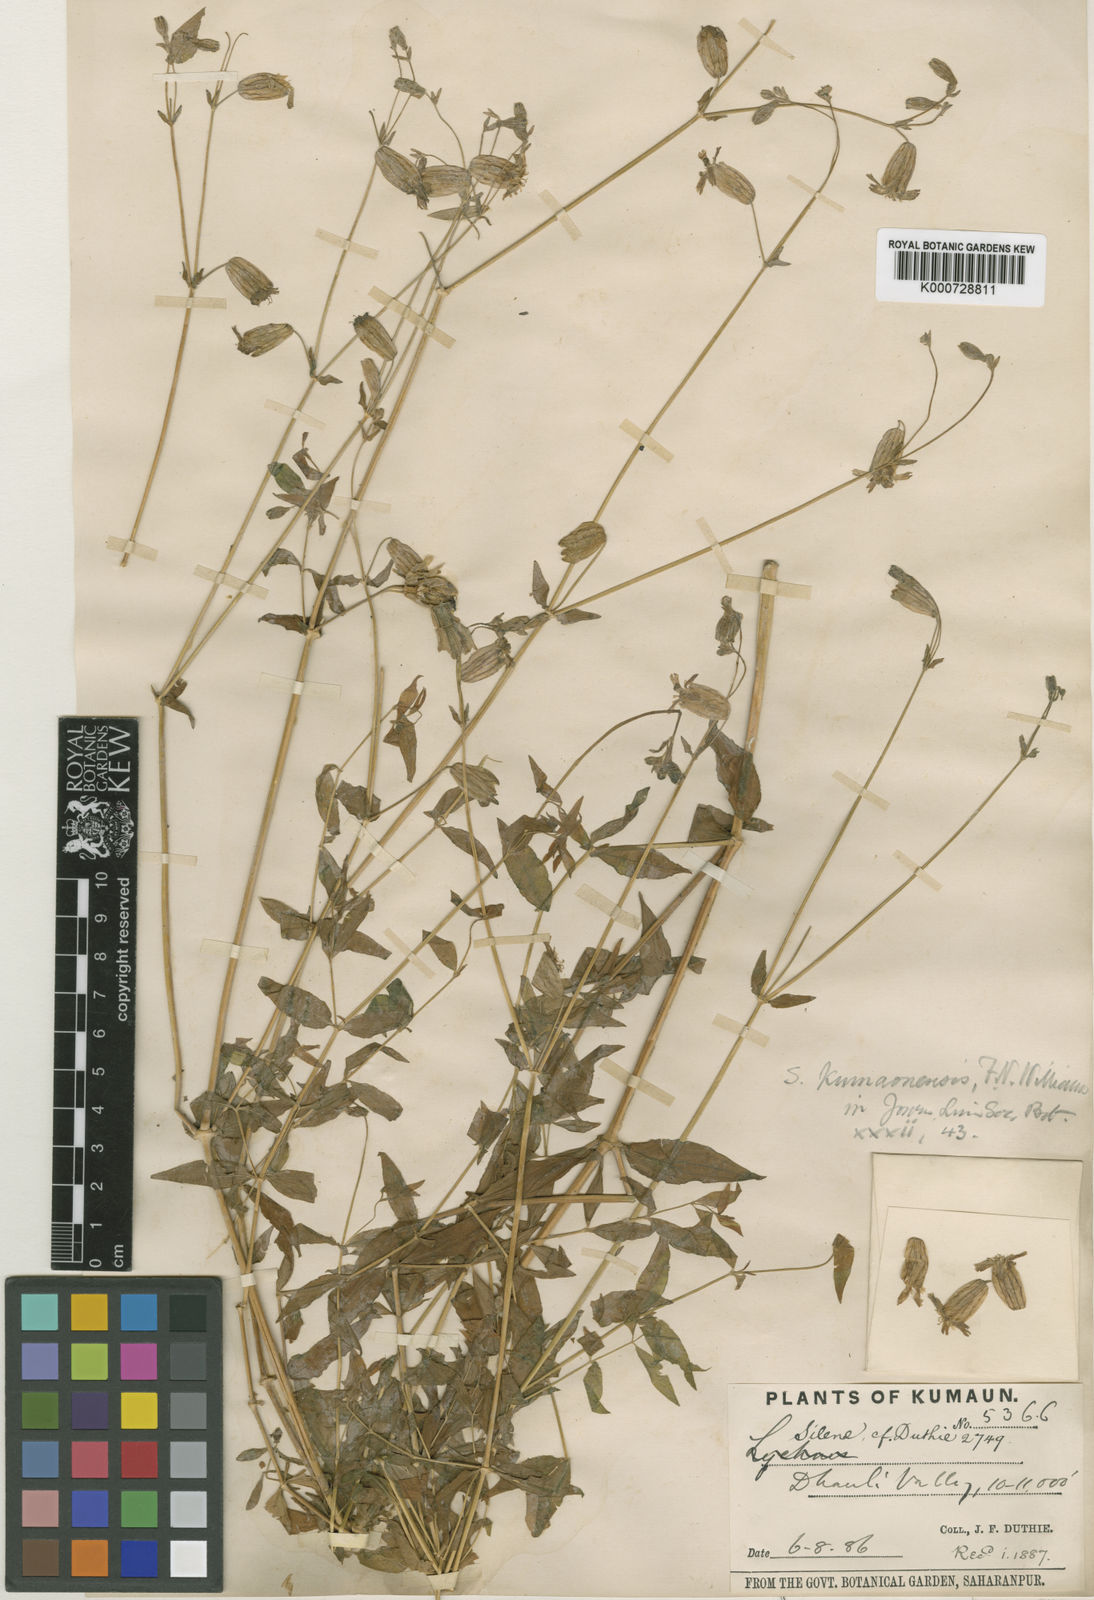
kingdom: Plantae
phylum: Tracheophyta
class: Magnoliopsida
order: Caryophyllales
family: Caryophyllaceae
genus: Silene
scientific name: Silene kumaonensis
